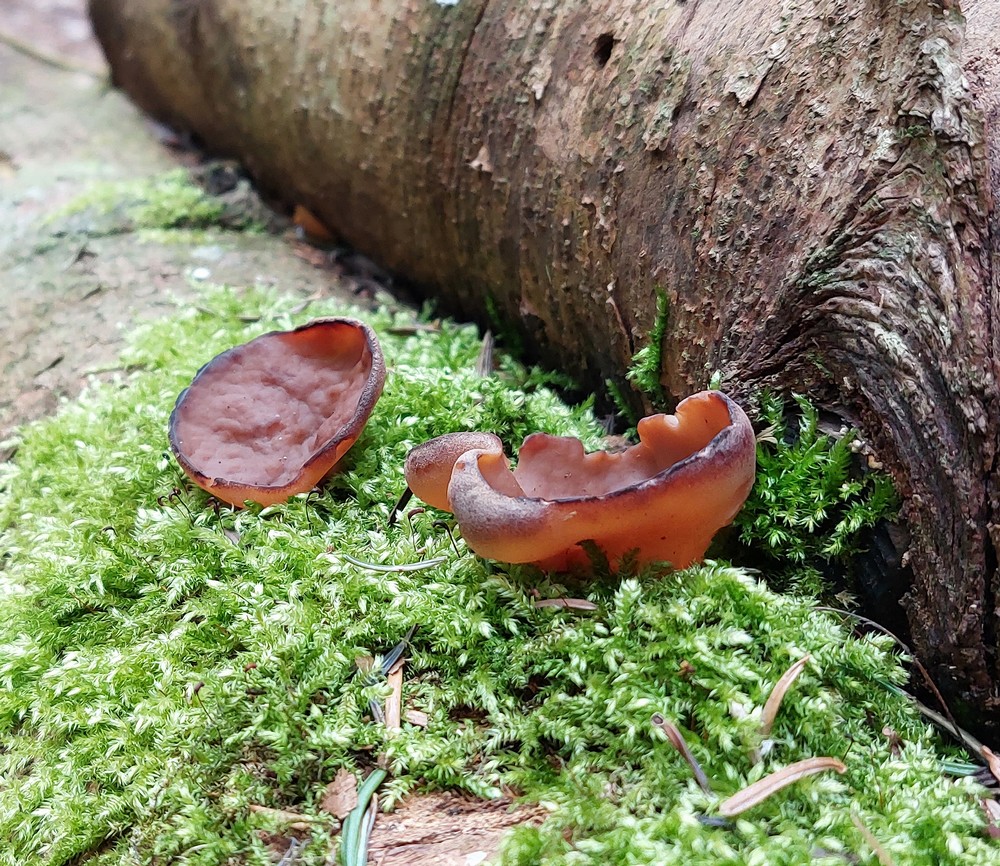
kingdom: Fungi
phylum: Ascomycota
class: Pezizomycetes
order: Pezizales
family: Discinaceae
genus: Discina
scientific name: Discina ancilis
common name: udbredt stenmorkel
